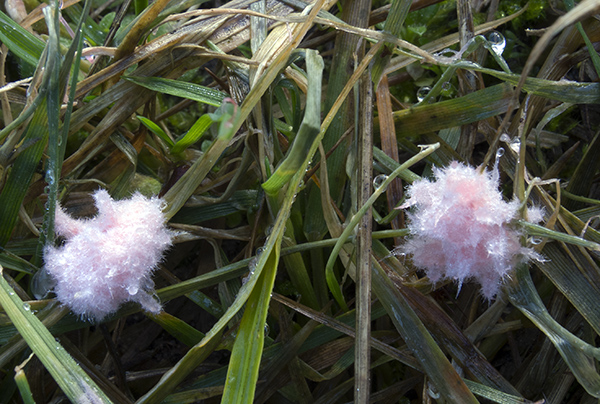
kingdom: Fungi
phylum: Basidiomycota
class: Agaricomycetes
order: Corticiales
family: Corticiaceae
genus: Laetisaria
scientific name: Laetisaria fuciformis
